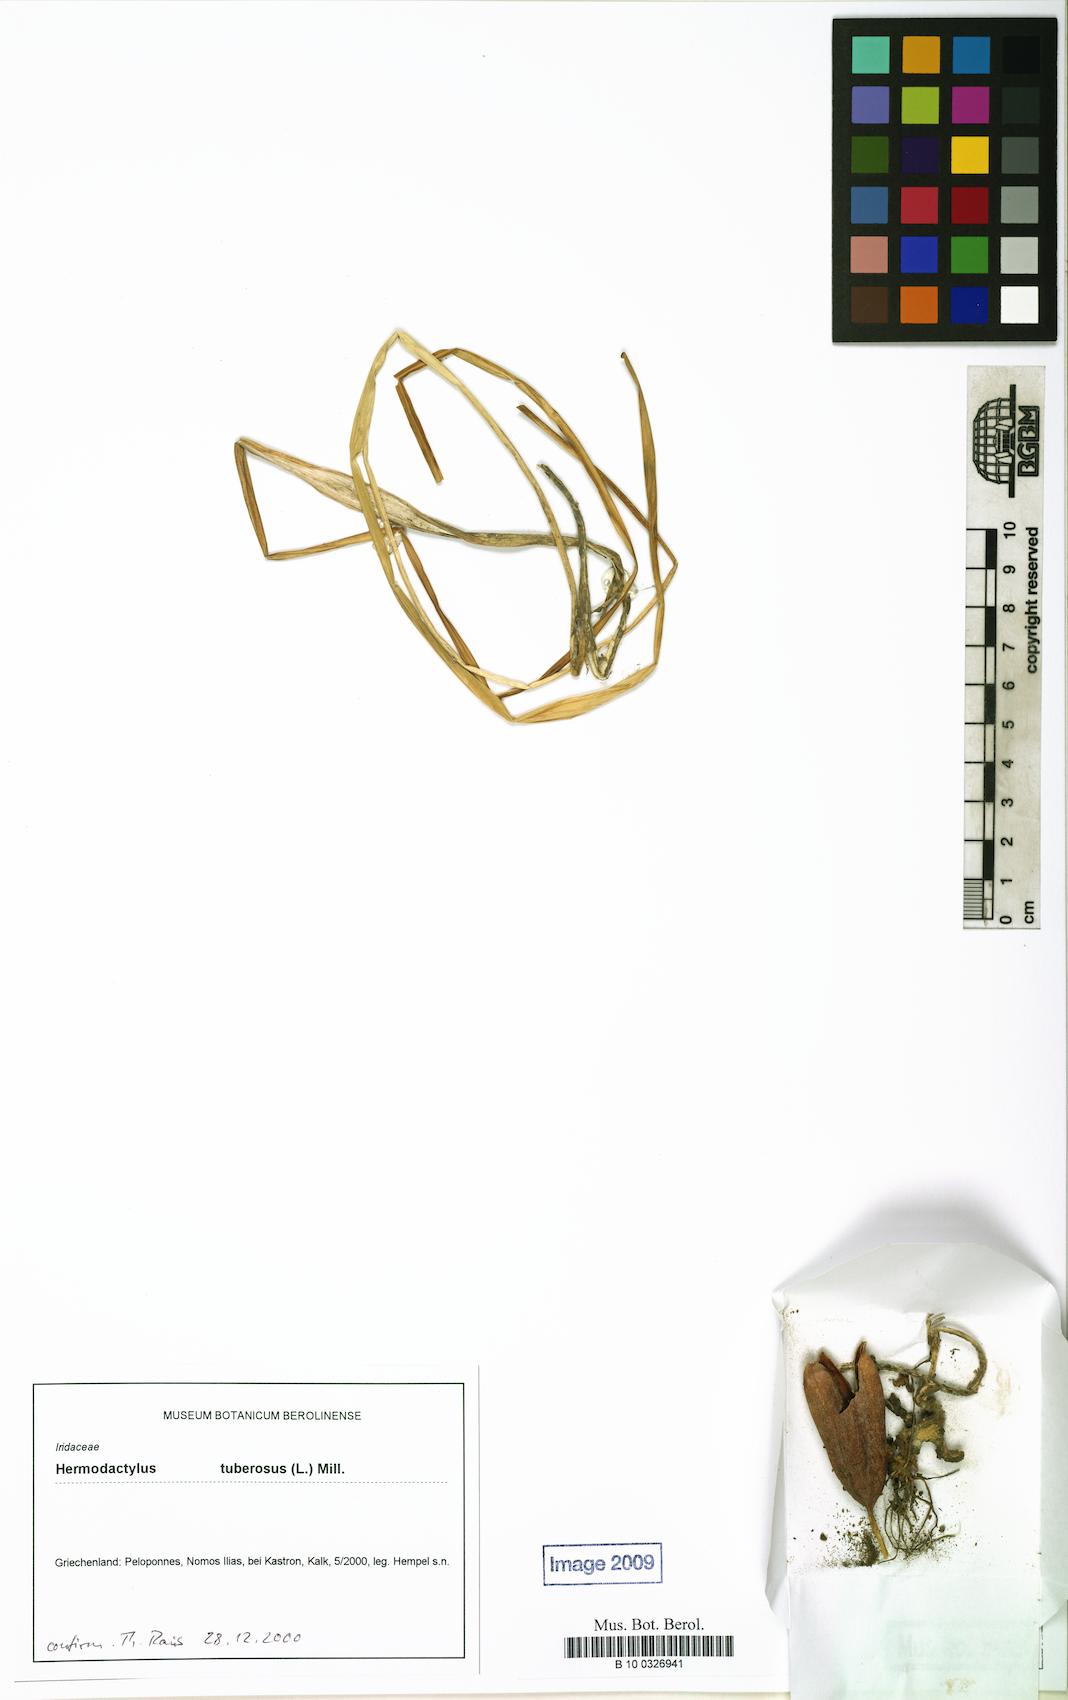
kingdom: Plantae
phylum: Tracheophyta
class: Liliopsida
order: Asparagales
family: Iridaceae
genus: Iris
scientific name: Iris tuberosa
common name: Snake's-head iris
